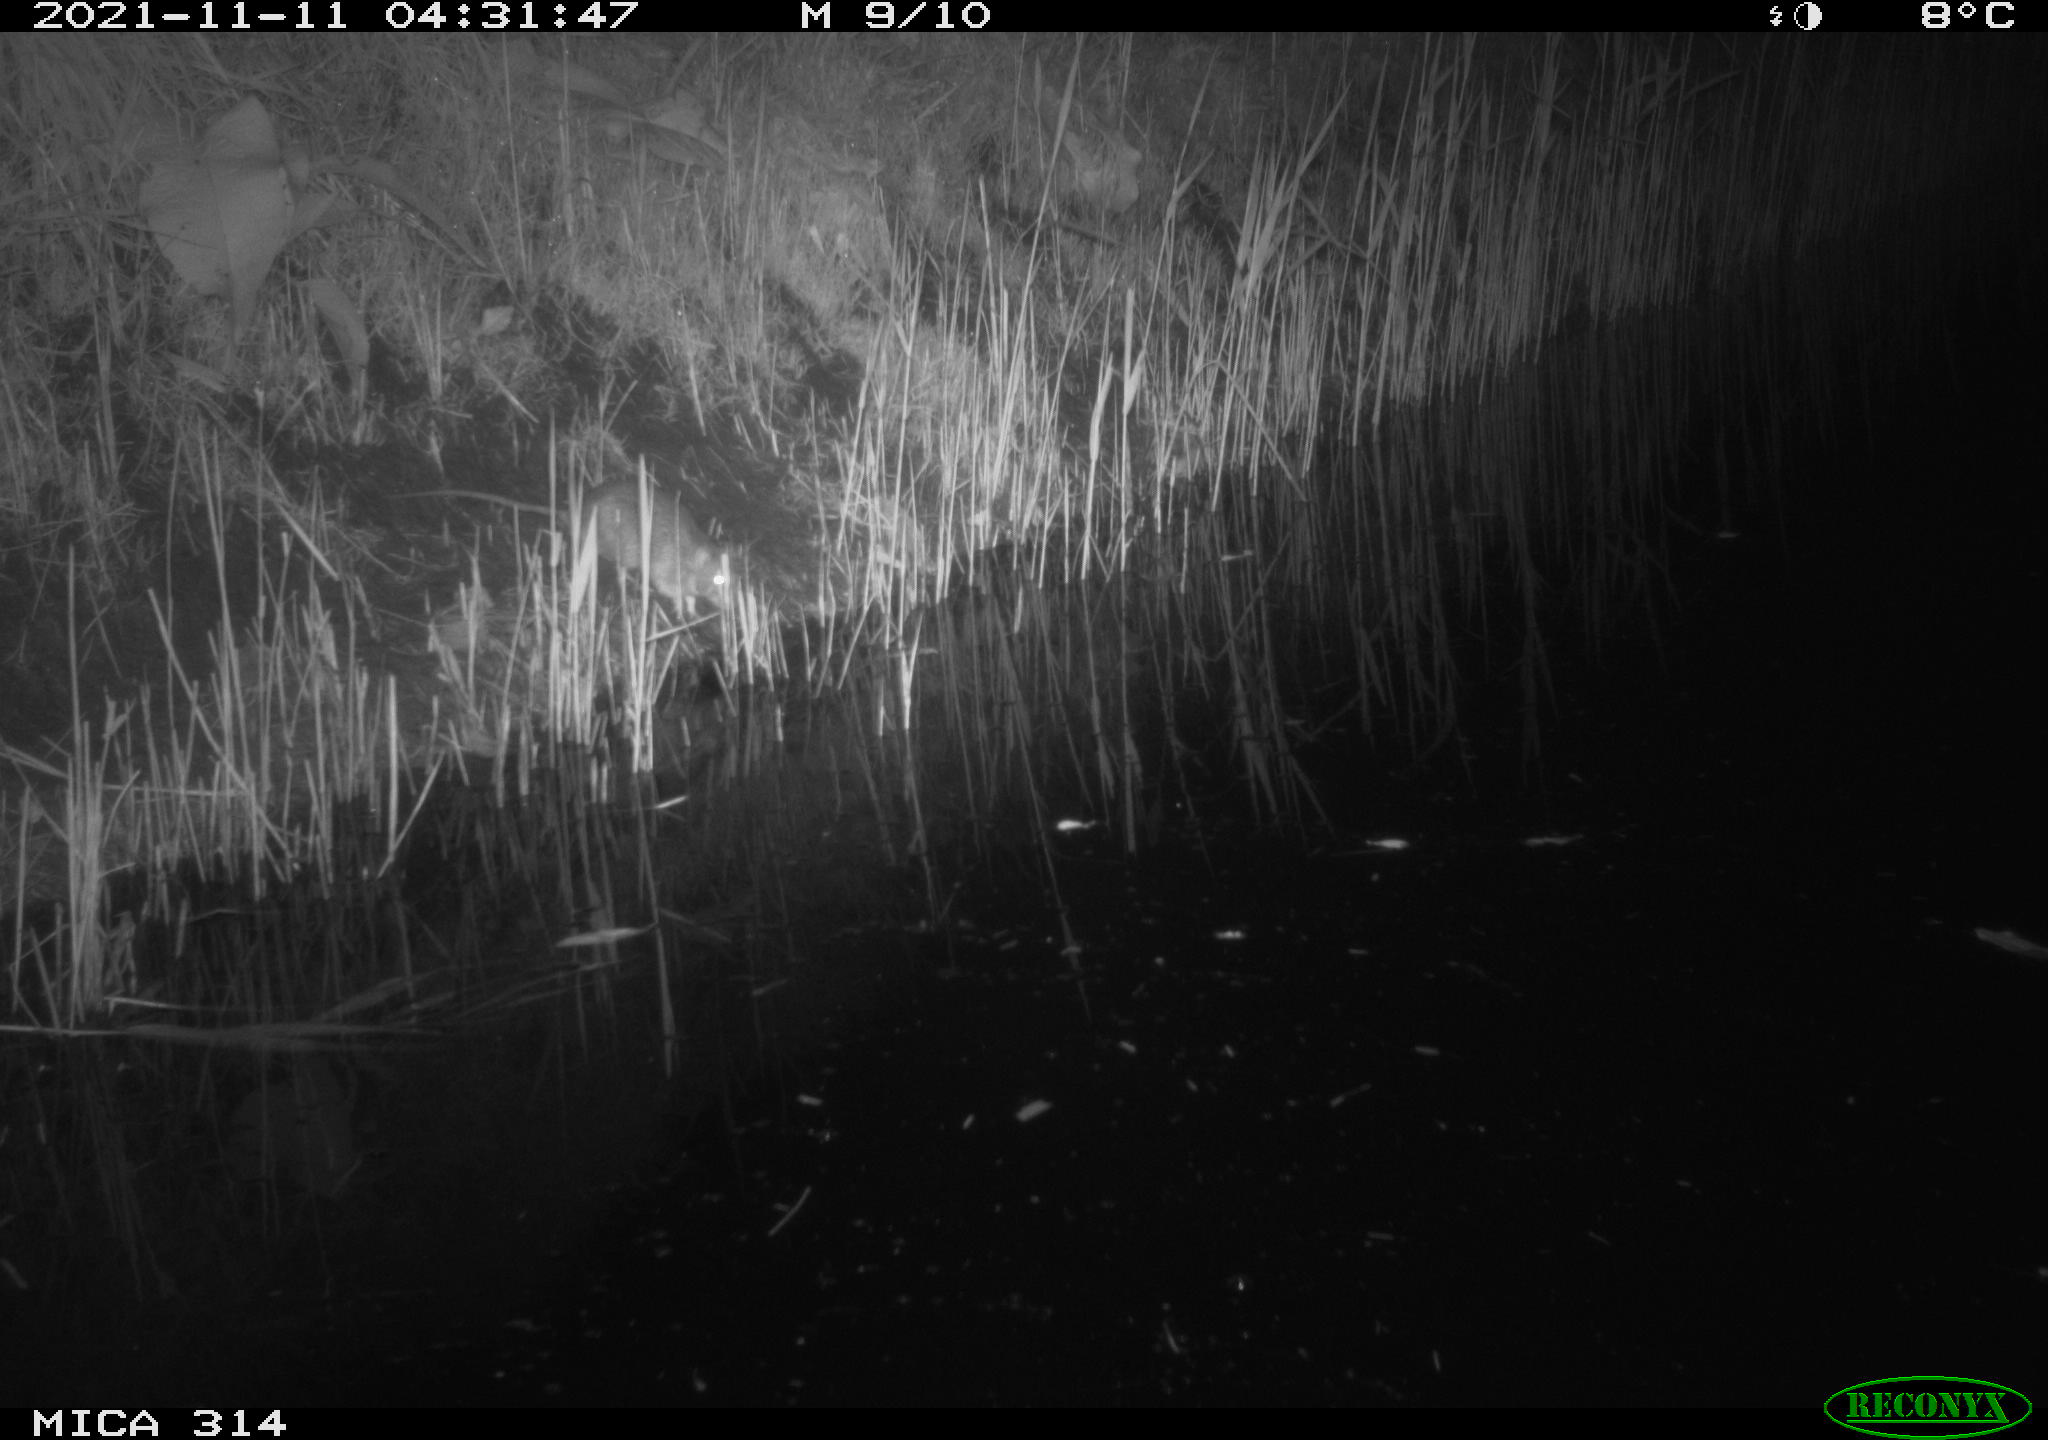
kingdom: Animalia
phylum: Chordata
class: Mammalia
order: Rodentia
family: Muridae
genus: Rattus
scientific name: Rattus norvegicus
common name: Brown rat
